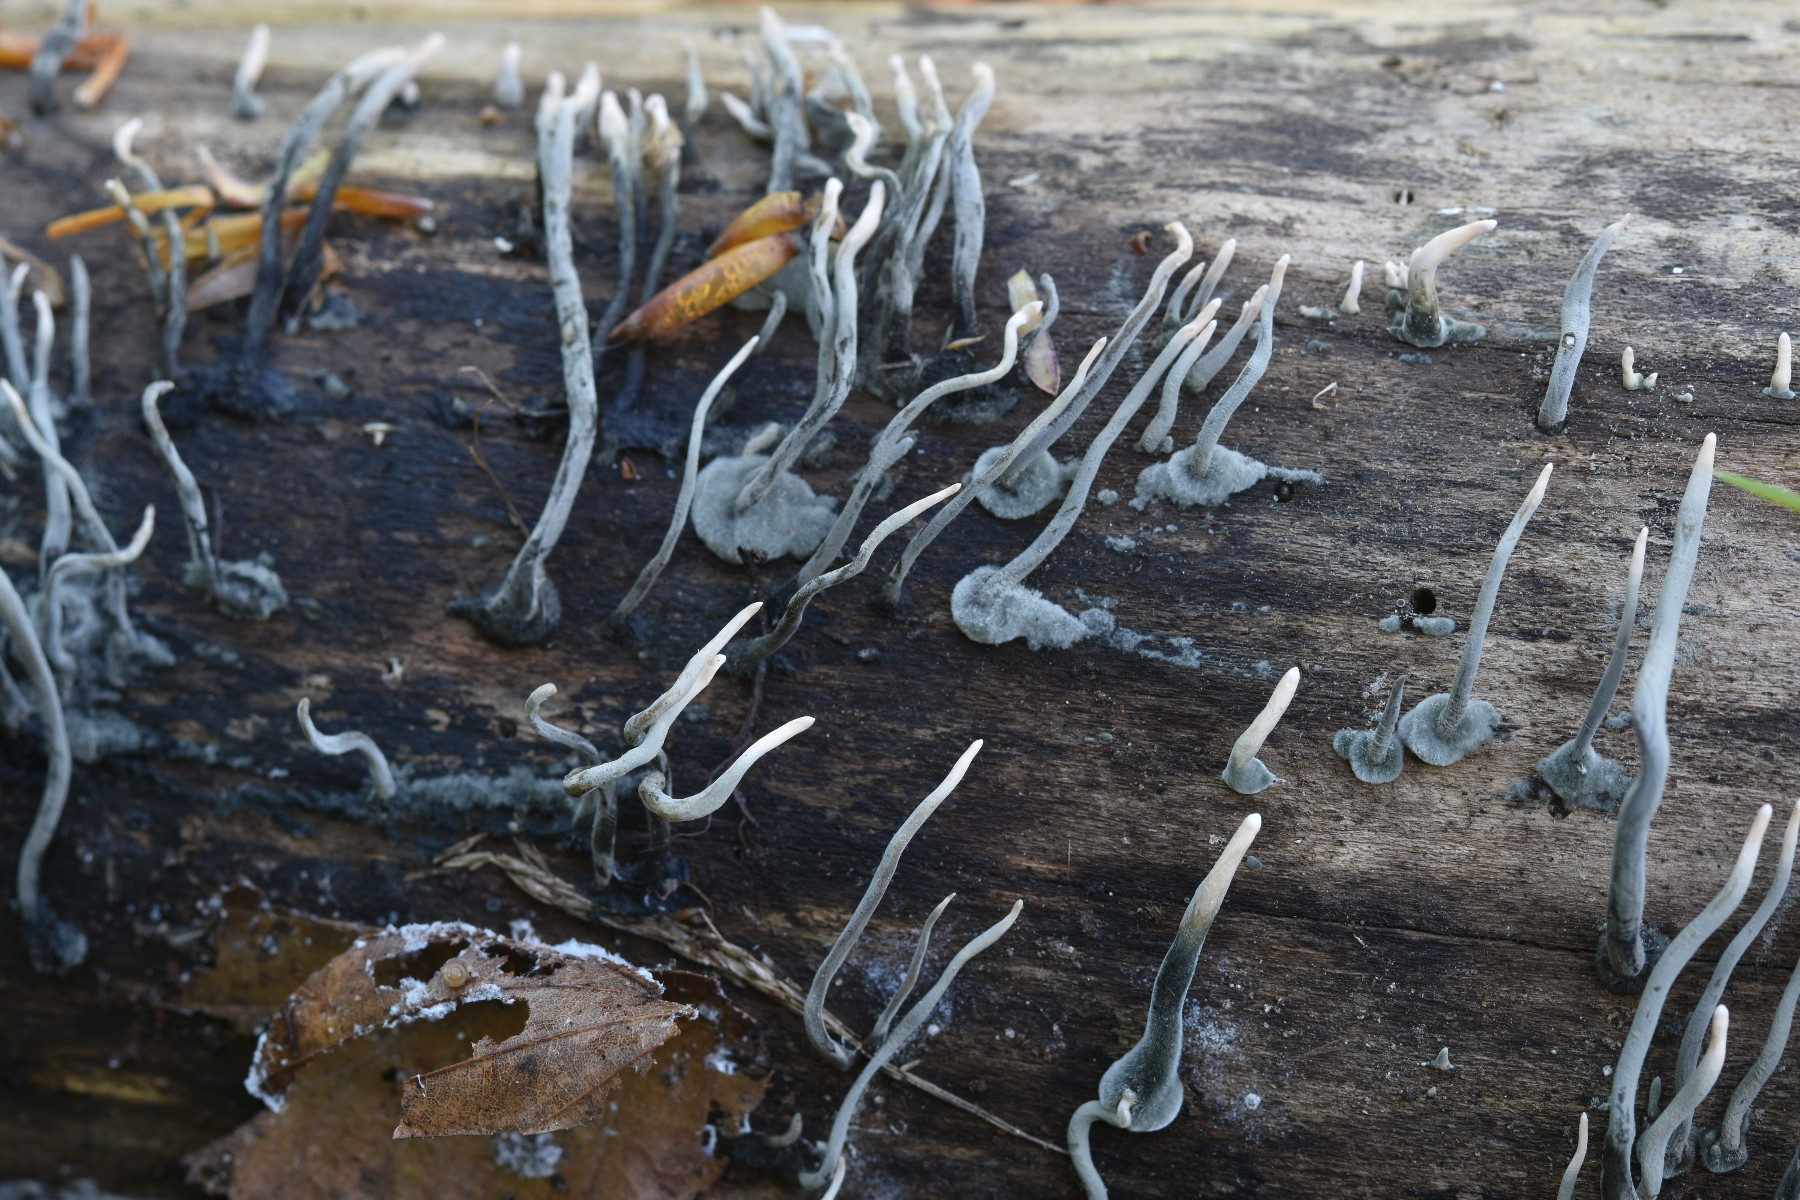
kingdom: Fungi
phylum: Ascomycota
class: Sordariomycetes
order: Xylariales
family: Xylariaceae
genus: Xylaria
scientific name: Xylaria hypoxylon
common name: grenet stødsvamp
